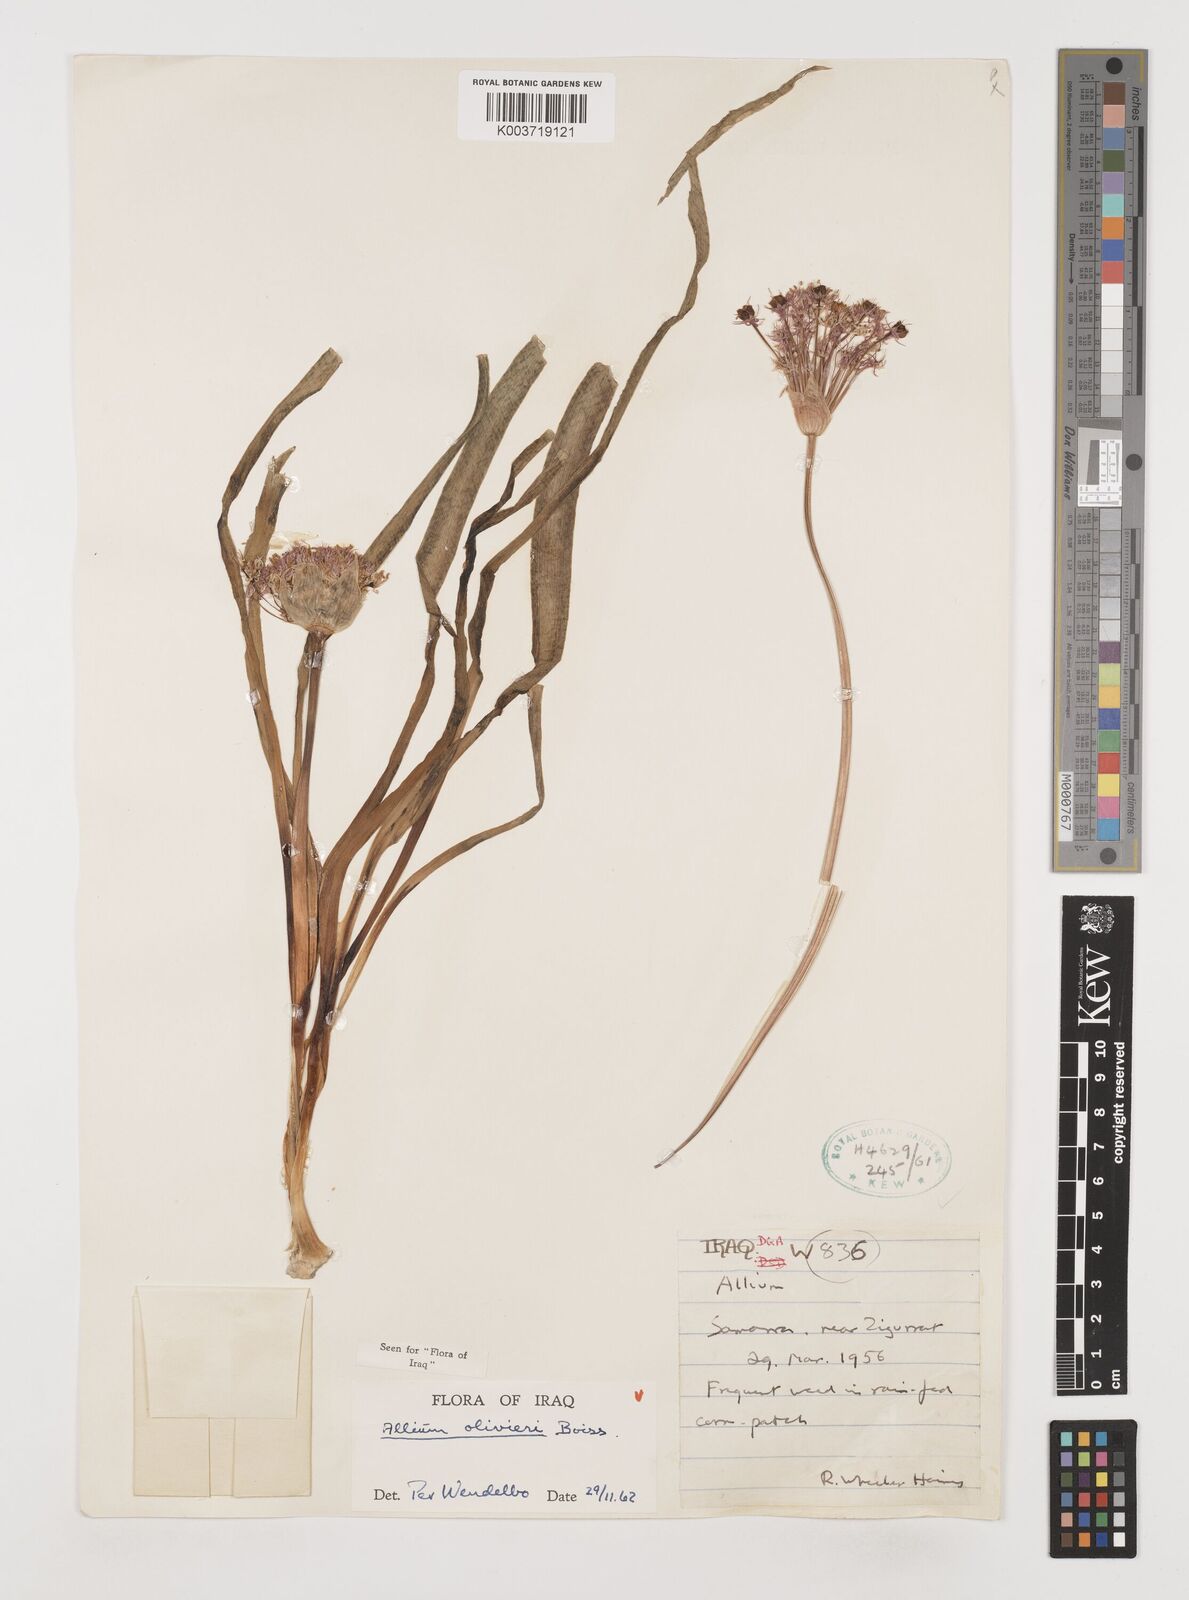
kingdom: Plantae
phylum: Tracheophyta
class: Liliopsida
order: Asparagales
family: Amaryllidaceae
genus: Allium
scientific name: Allium olivieri
